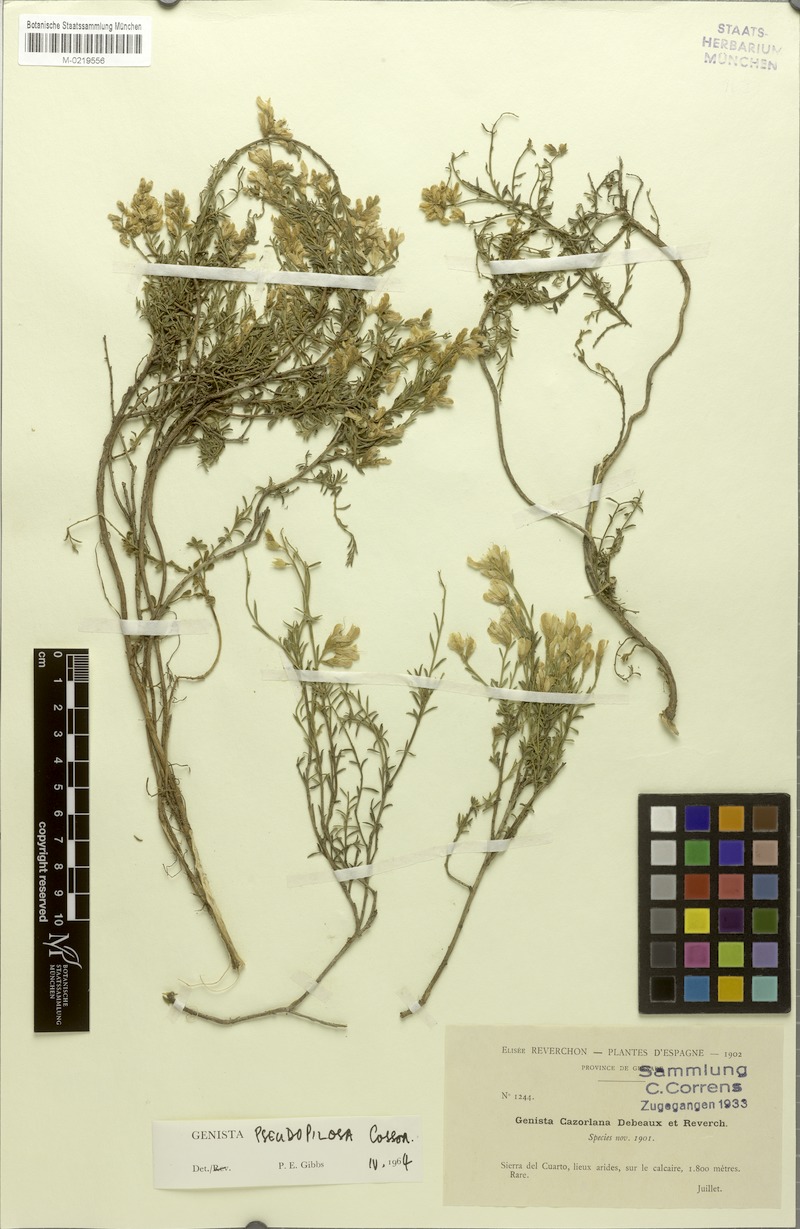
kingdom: Plantae
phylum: Tracheophyta
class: Magnoliopsida
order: Fabales
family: Fabaceae
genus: Genista
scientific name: Genista pseudopilosa
